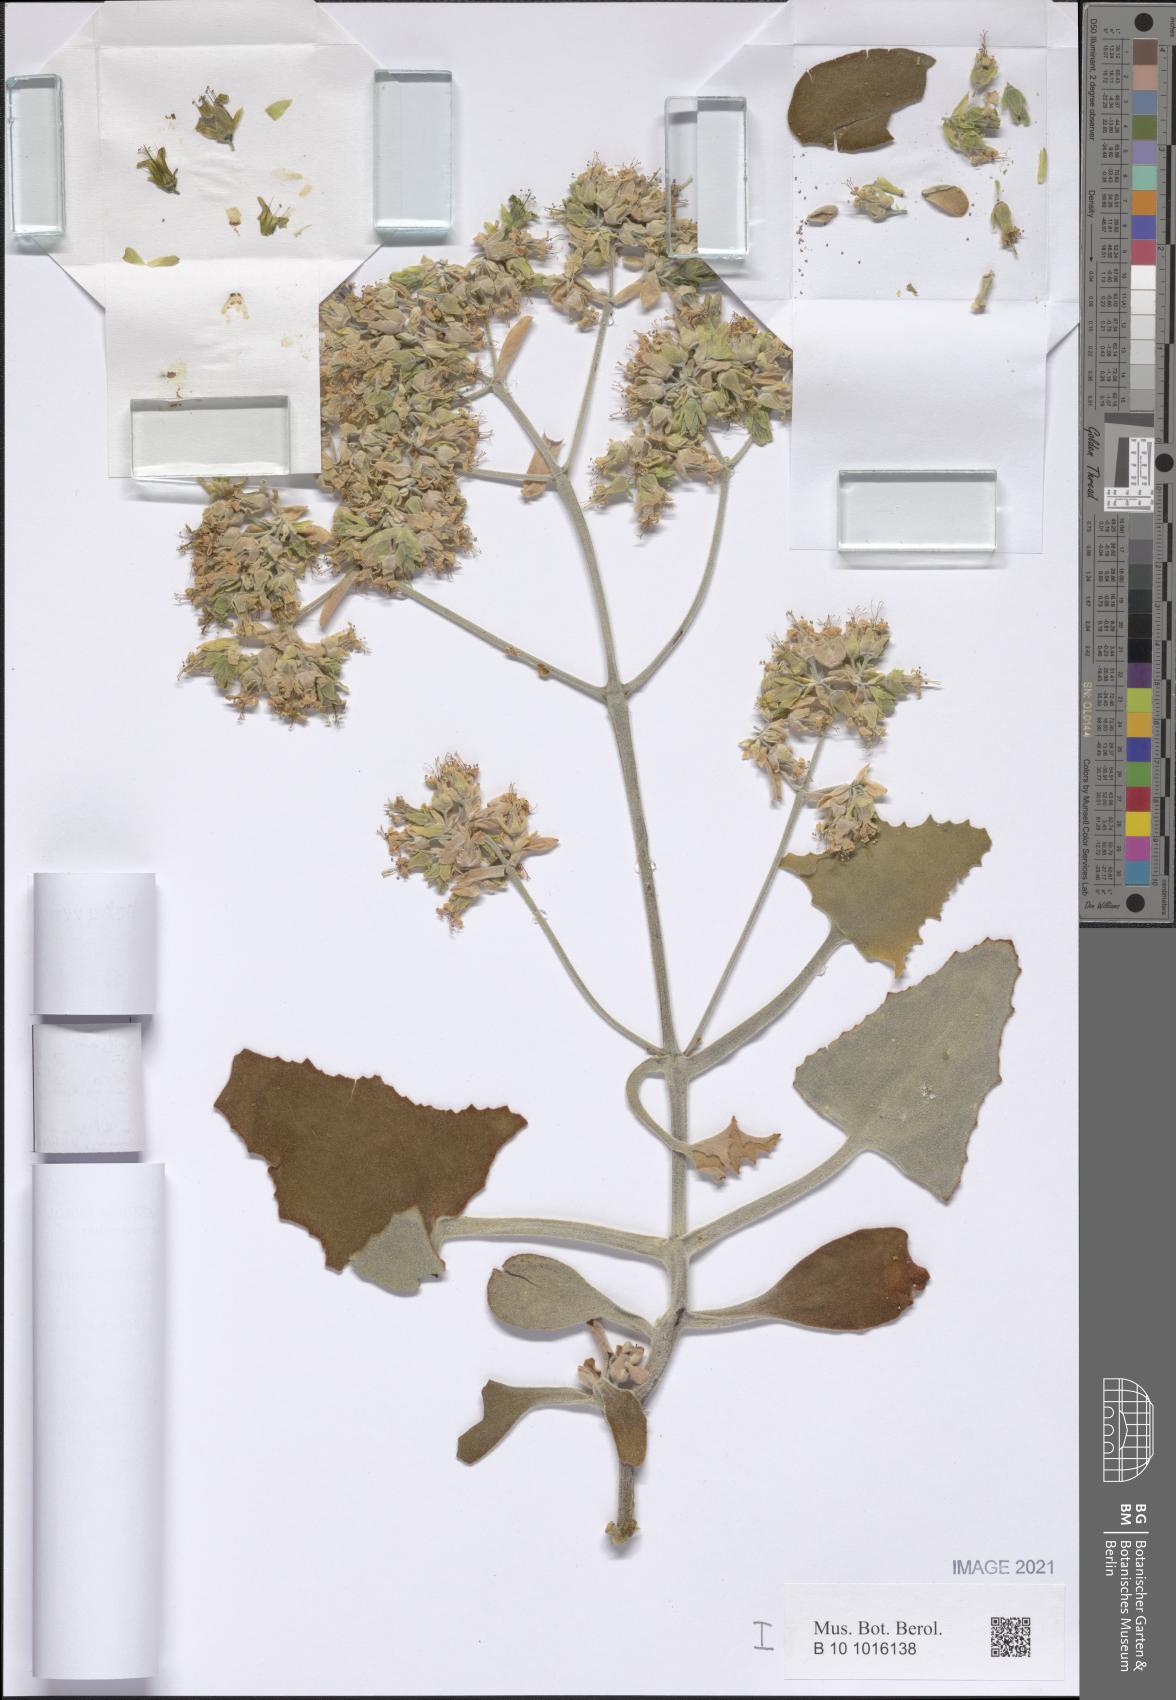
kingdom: Plantae
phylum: Tracheophyta
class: Magnoliopsida
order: Saxifragales
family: Crassulaceae
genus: Kalanchoe
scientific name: Kalanchoe beharensis
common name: Velvet leaf
